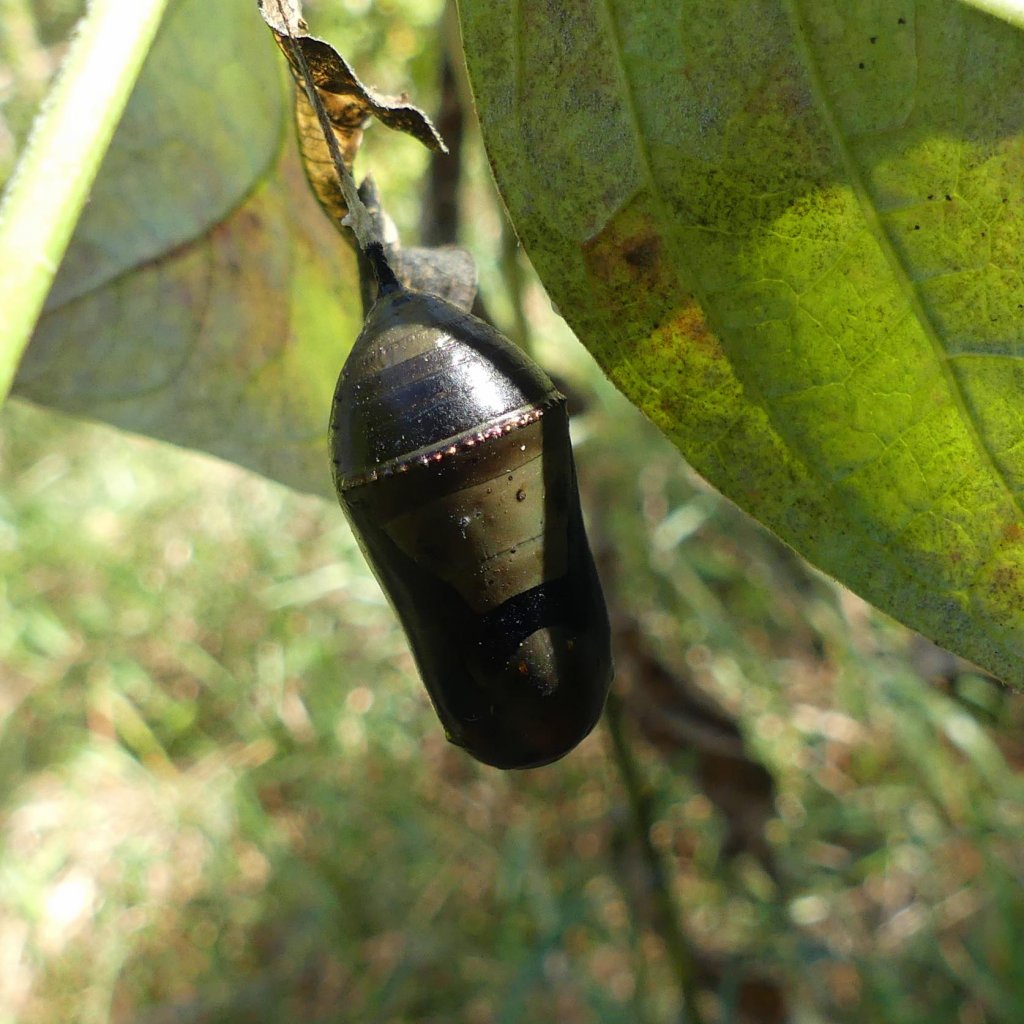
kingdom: Animalia
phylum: Arthropoda
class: Insecta
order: Lepidoptera
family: Nymphalidae
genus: Danaus
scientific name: Danaus plexippus
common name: Monarch
